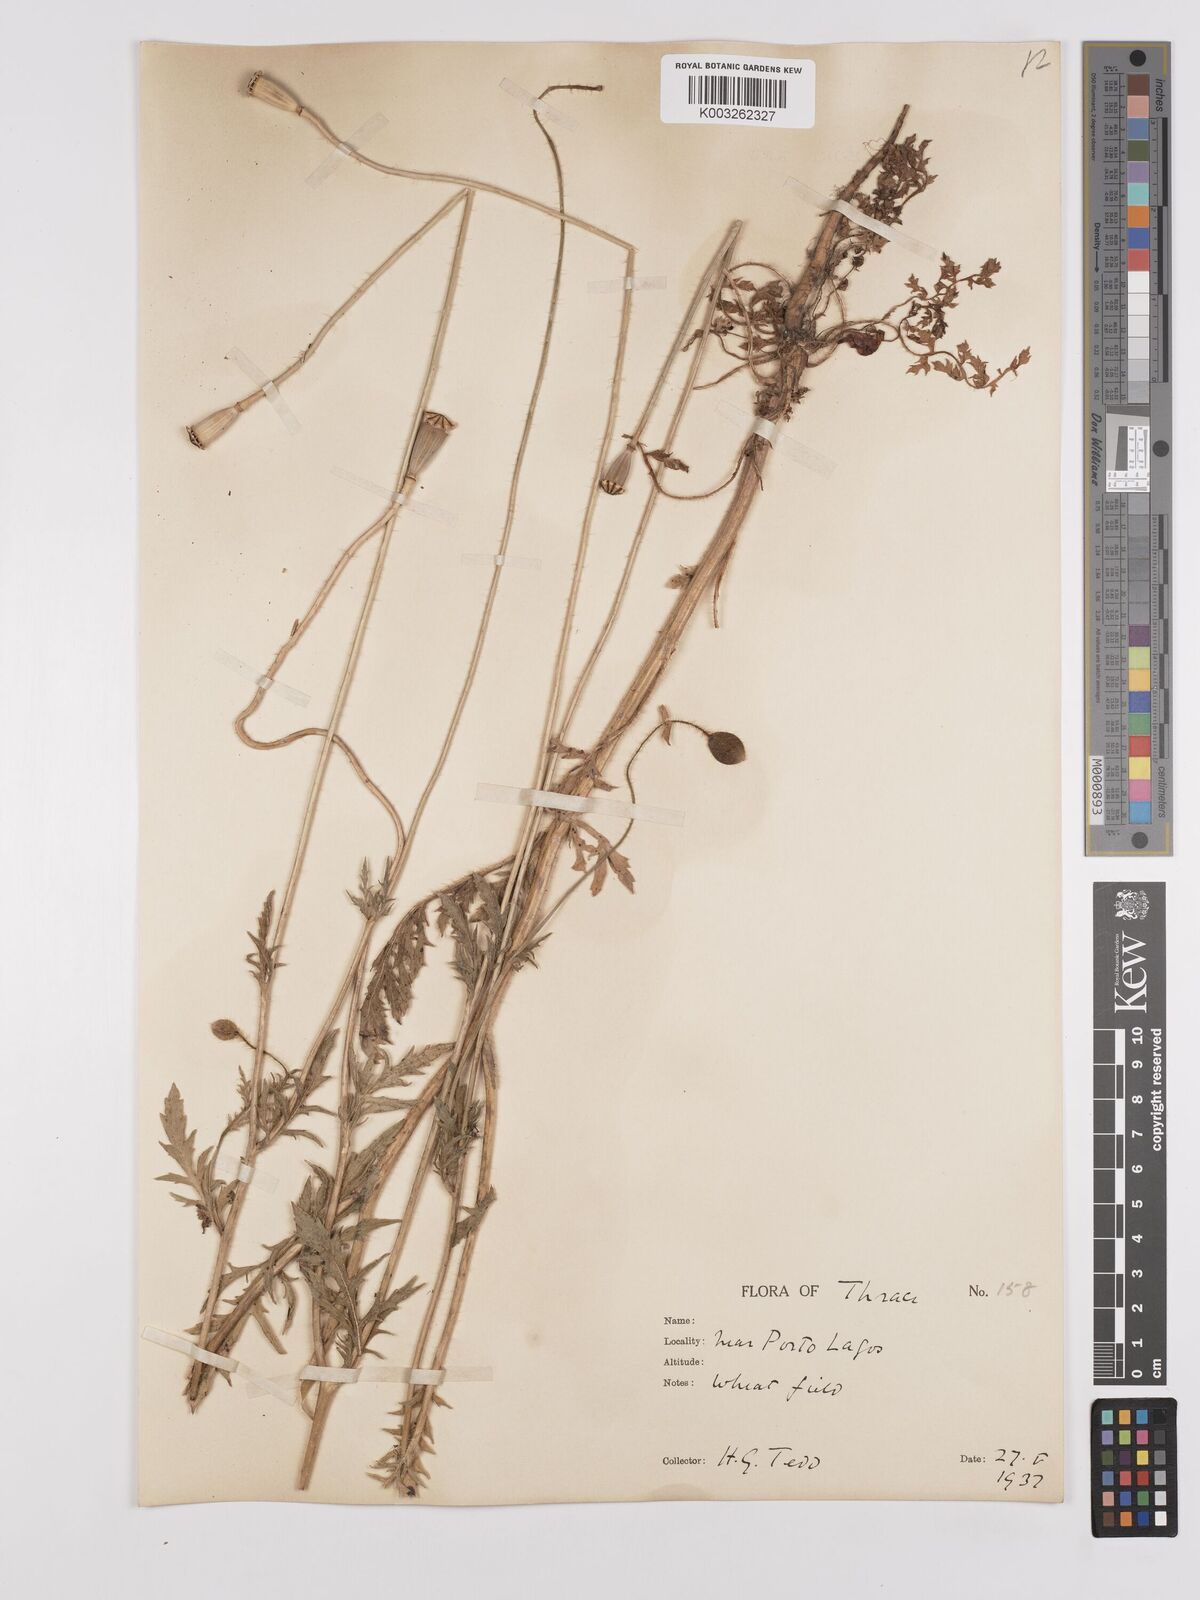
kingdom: Plantae
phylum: Tracheophyta
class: Magnoliopsida
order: Ranunculales
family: Papaveraceae
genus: Papaver
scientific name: Papaver rhoeas
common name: Corn poppy
